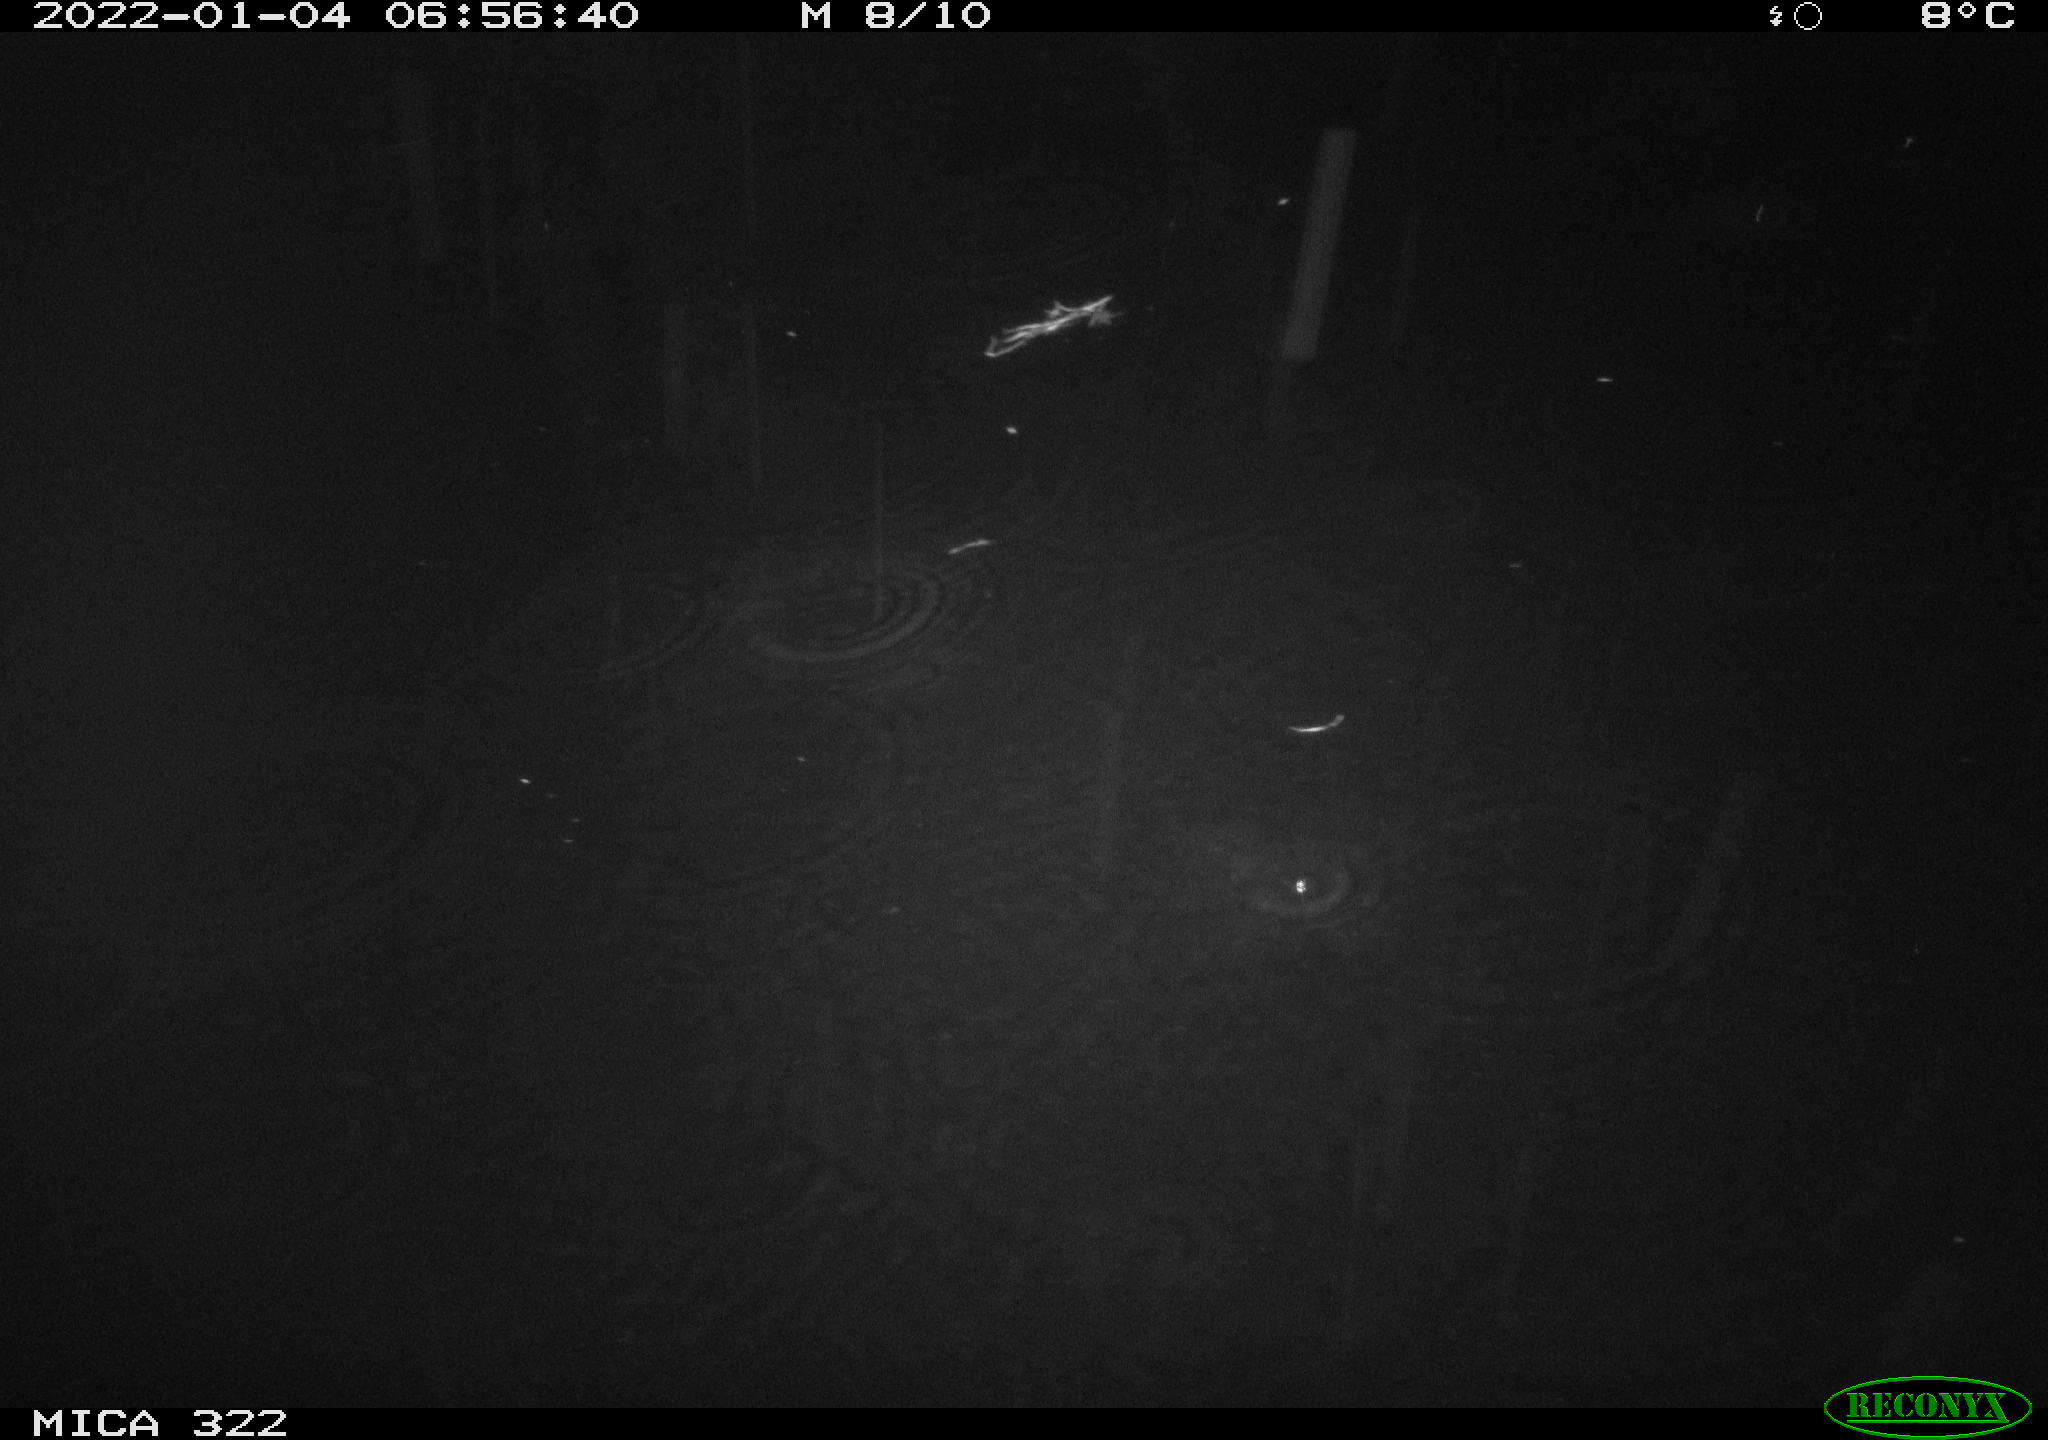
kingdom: Animalia
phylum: Chordata
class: Mammalia
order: Rodentia
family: Muridae
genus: Rattus
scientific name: Rattus norvegicus
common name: Brown rat
